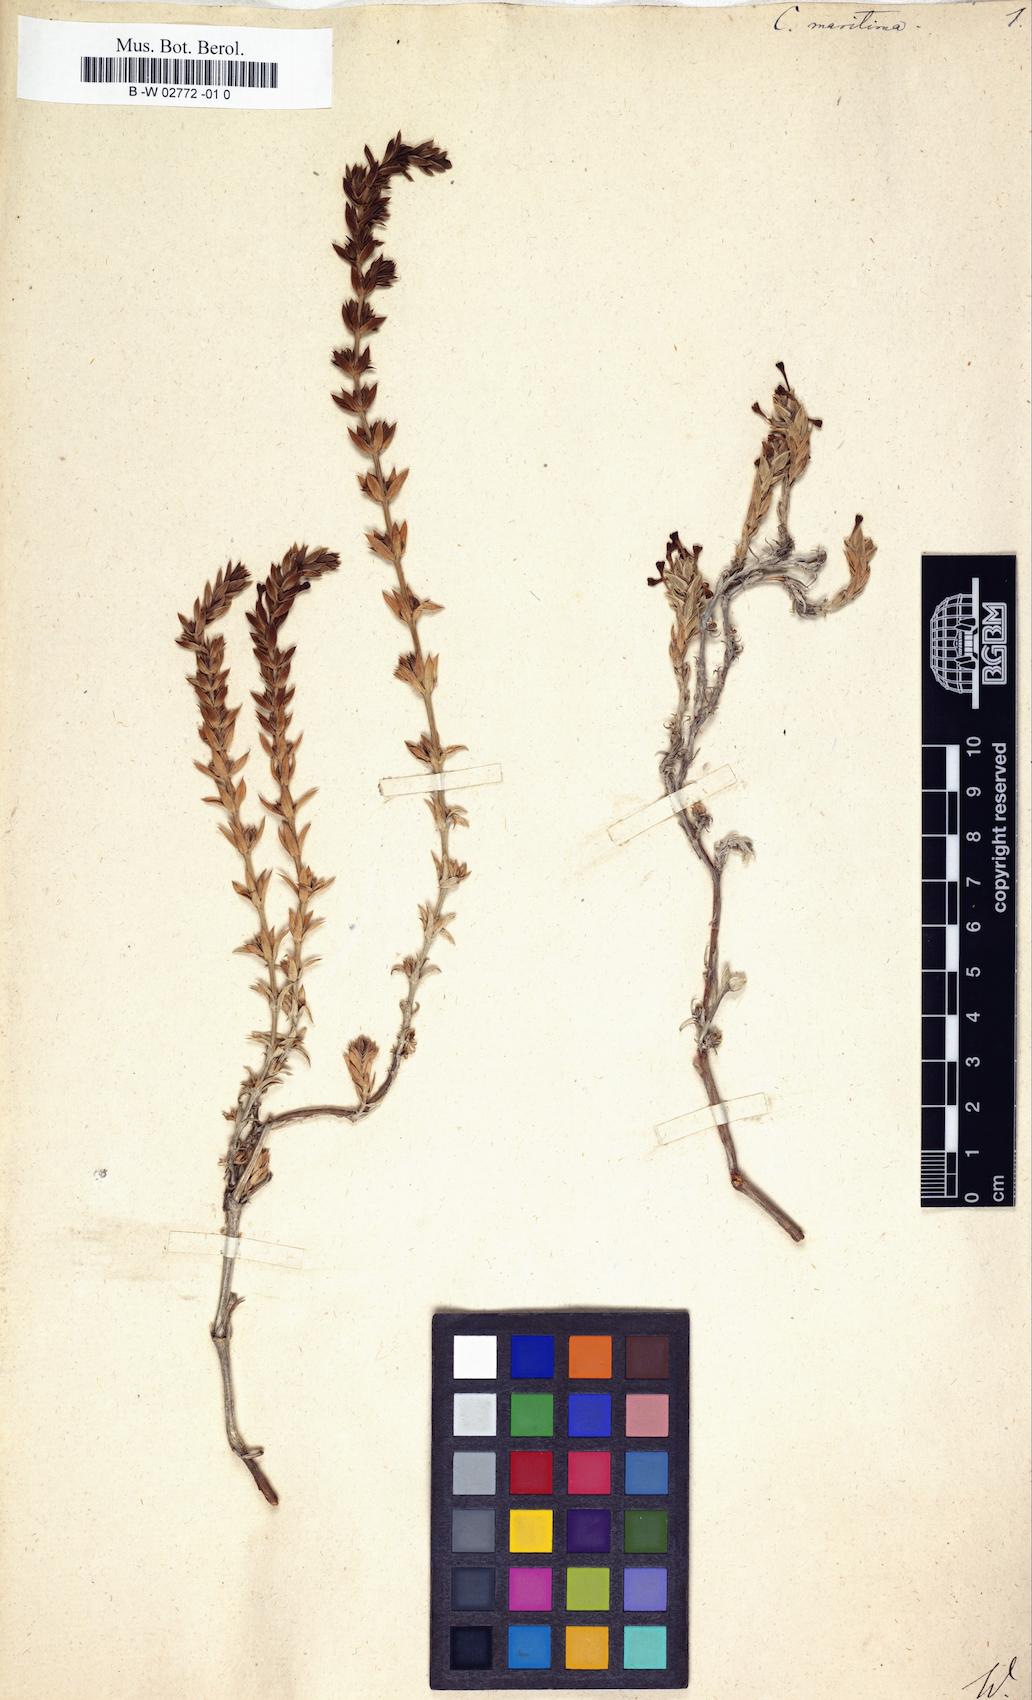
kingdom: Plantae
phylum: Tracheophyta
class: Magnoliopsida
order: Gentianales
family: Rubiaceae
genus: Crucianella
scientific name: Crucianella maritima
